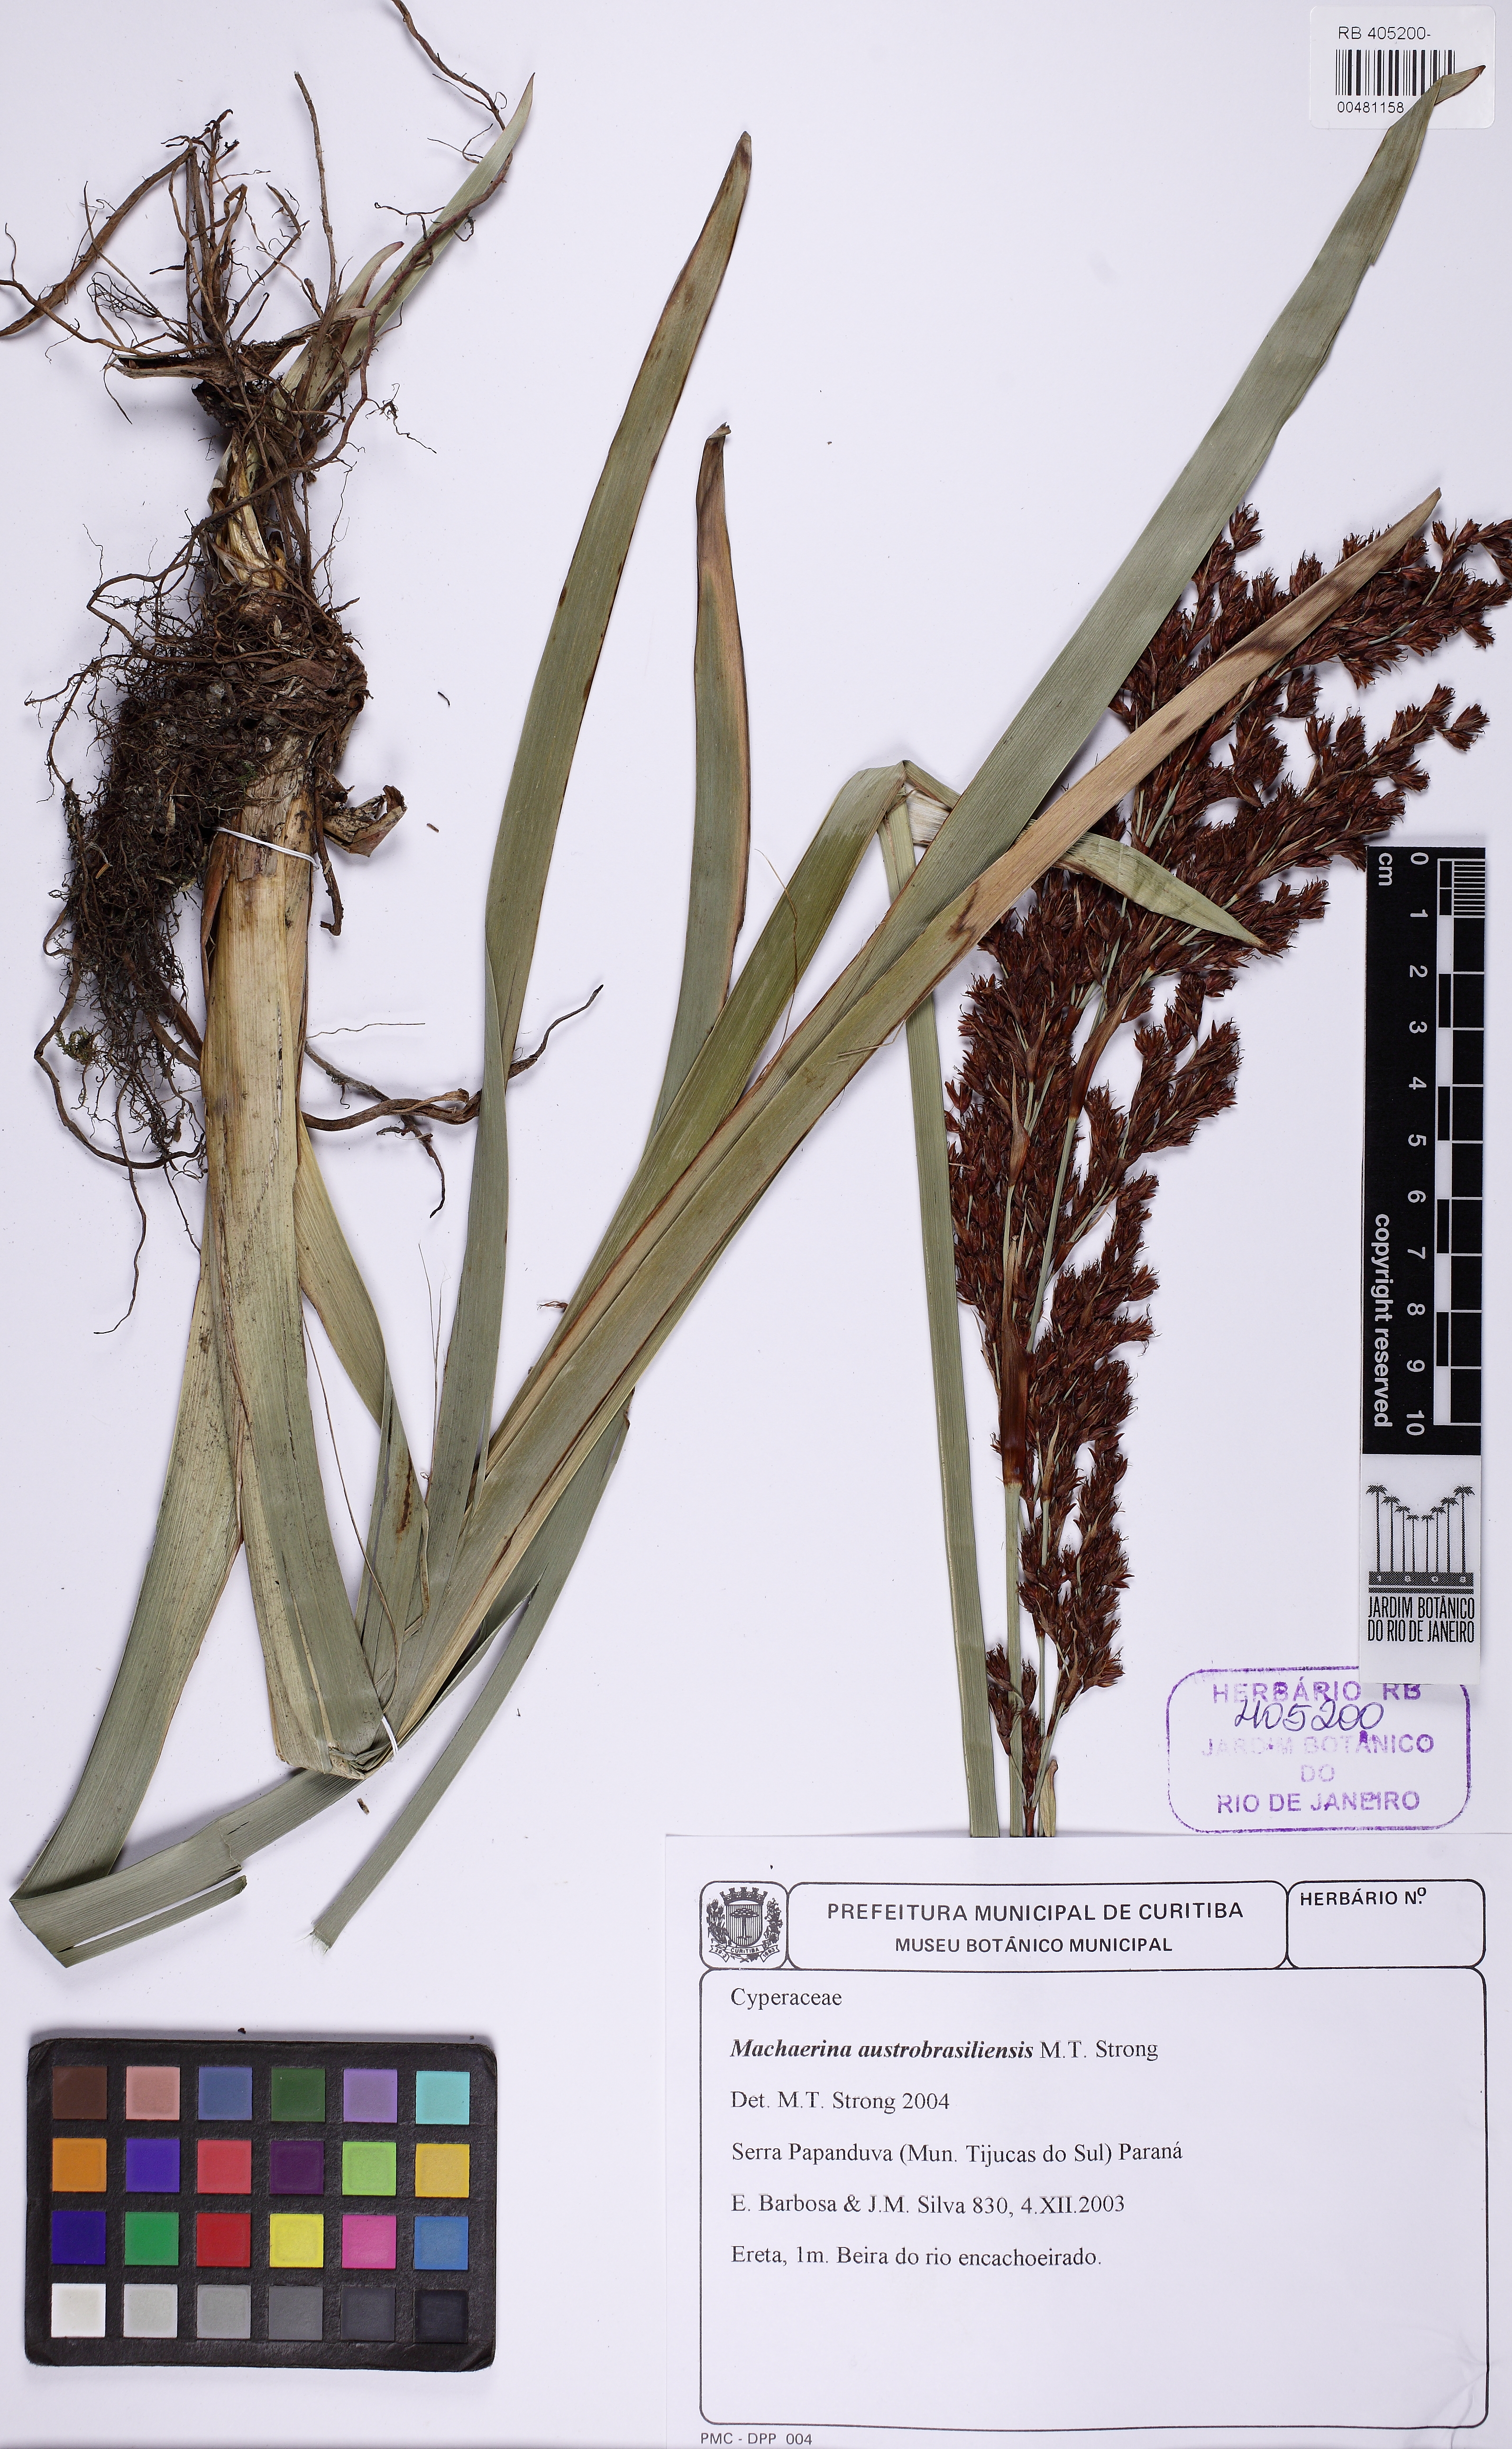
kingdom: Plantae
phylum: Tracheophyta
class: Liliopsida
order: Poales
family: Cyperaceae
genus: Machaerina
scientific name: Machaerina austrobrasiliensis
